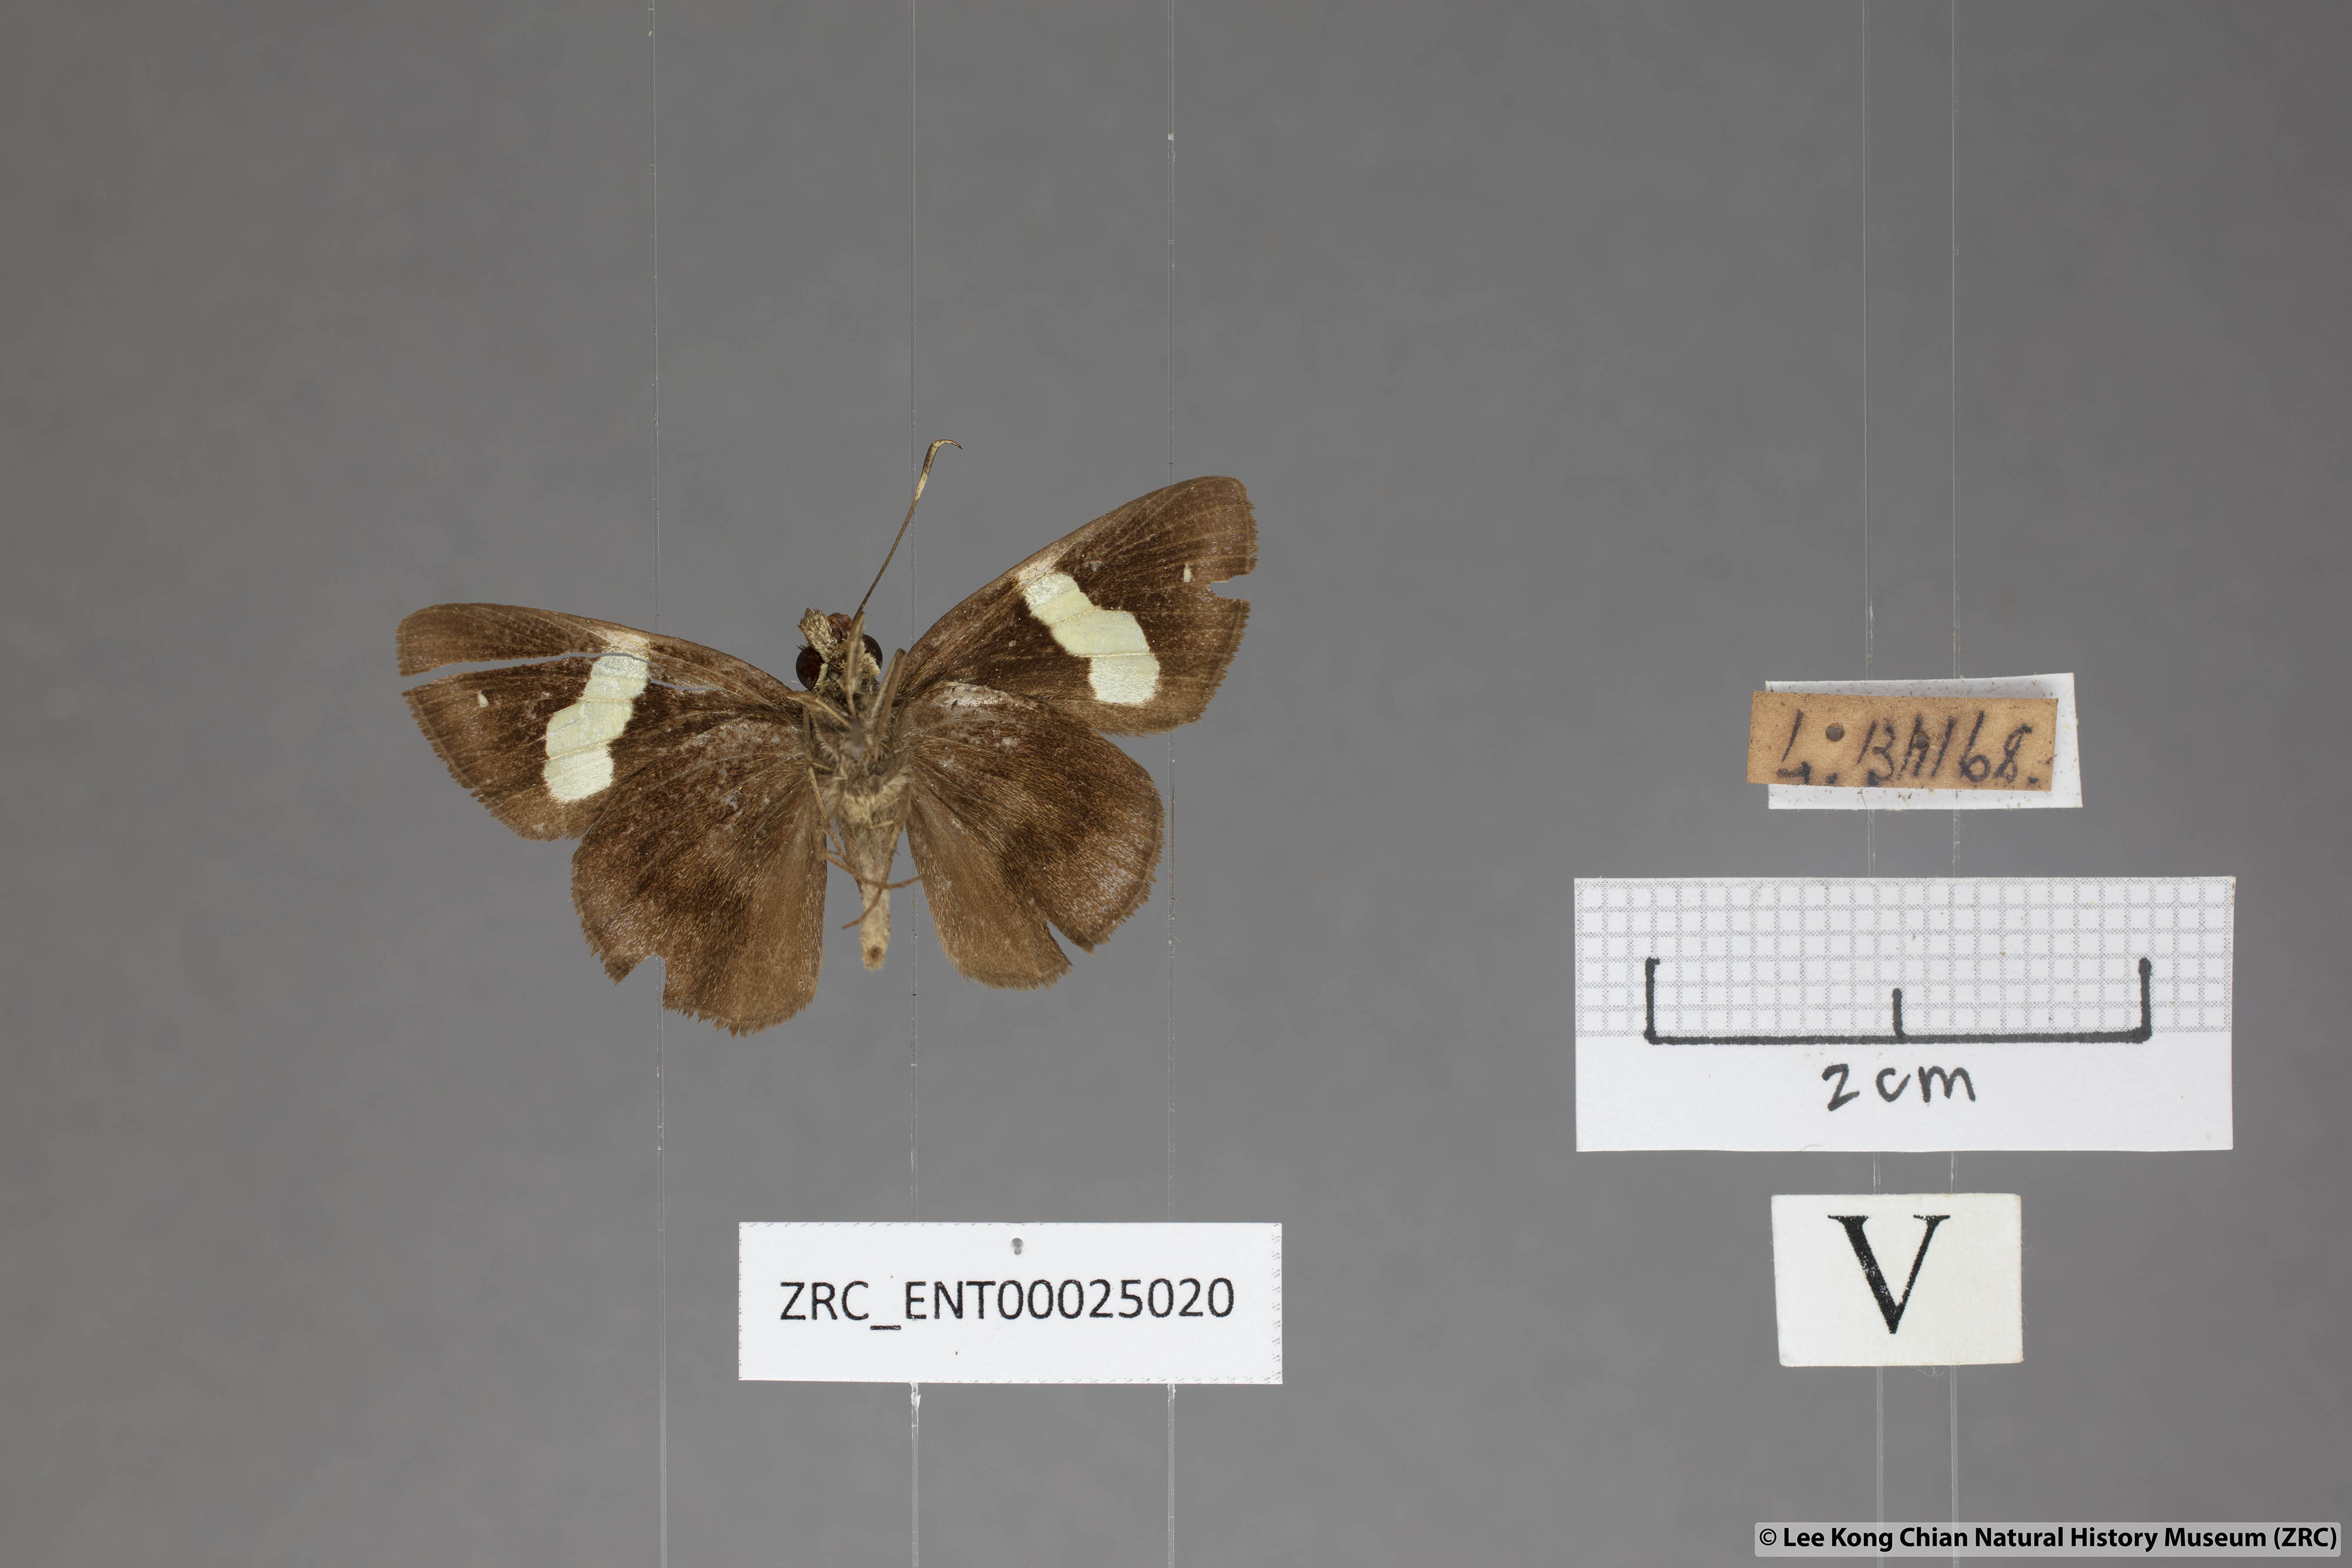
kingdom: Animalia
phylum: Arthropoda
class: Insecta
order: Lepidoptera
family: Hesperiidae
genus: Notocrypta
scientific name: Notocrypta paralysos
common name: Common banded demon
